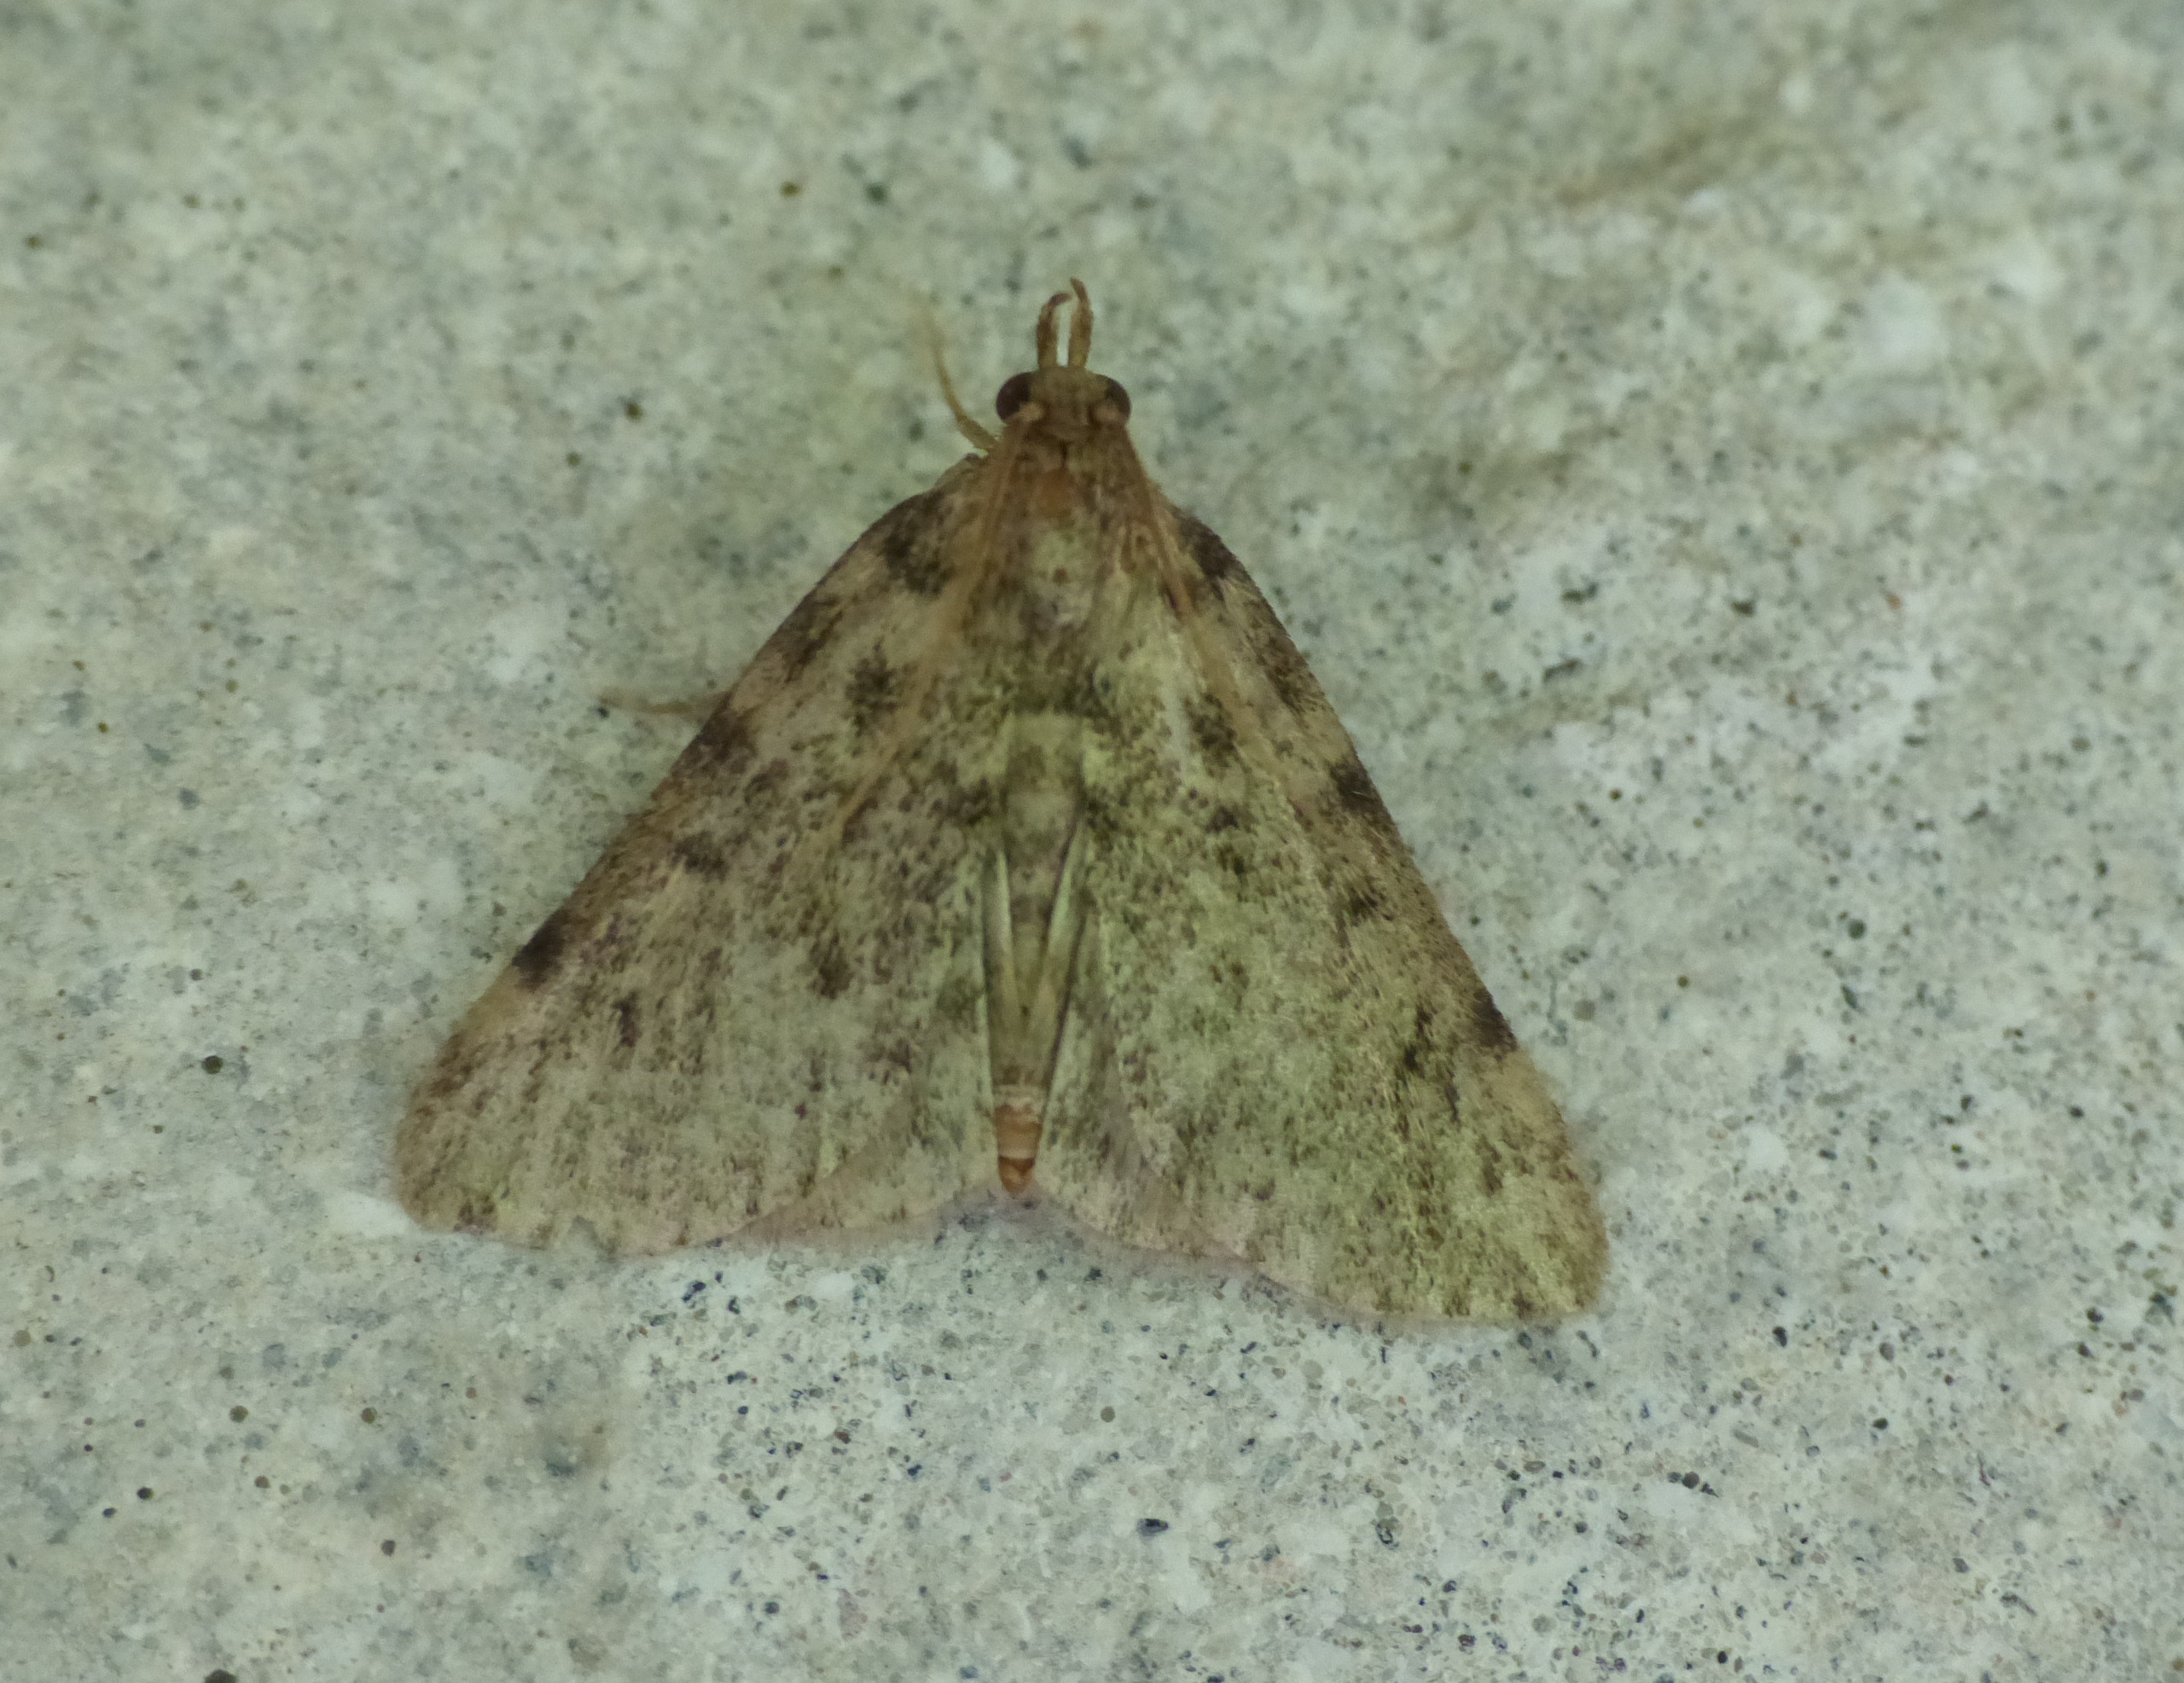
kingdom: Animalia
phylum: Arthropoda
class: Insecta
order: Lepidoptera
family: Pyralidae
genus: Aglossa
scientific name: Aglossa pinguinalis
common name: Fedtmøl
